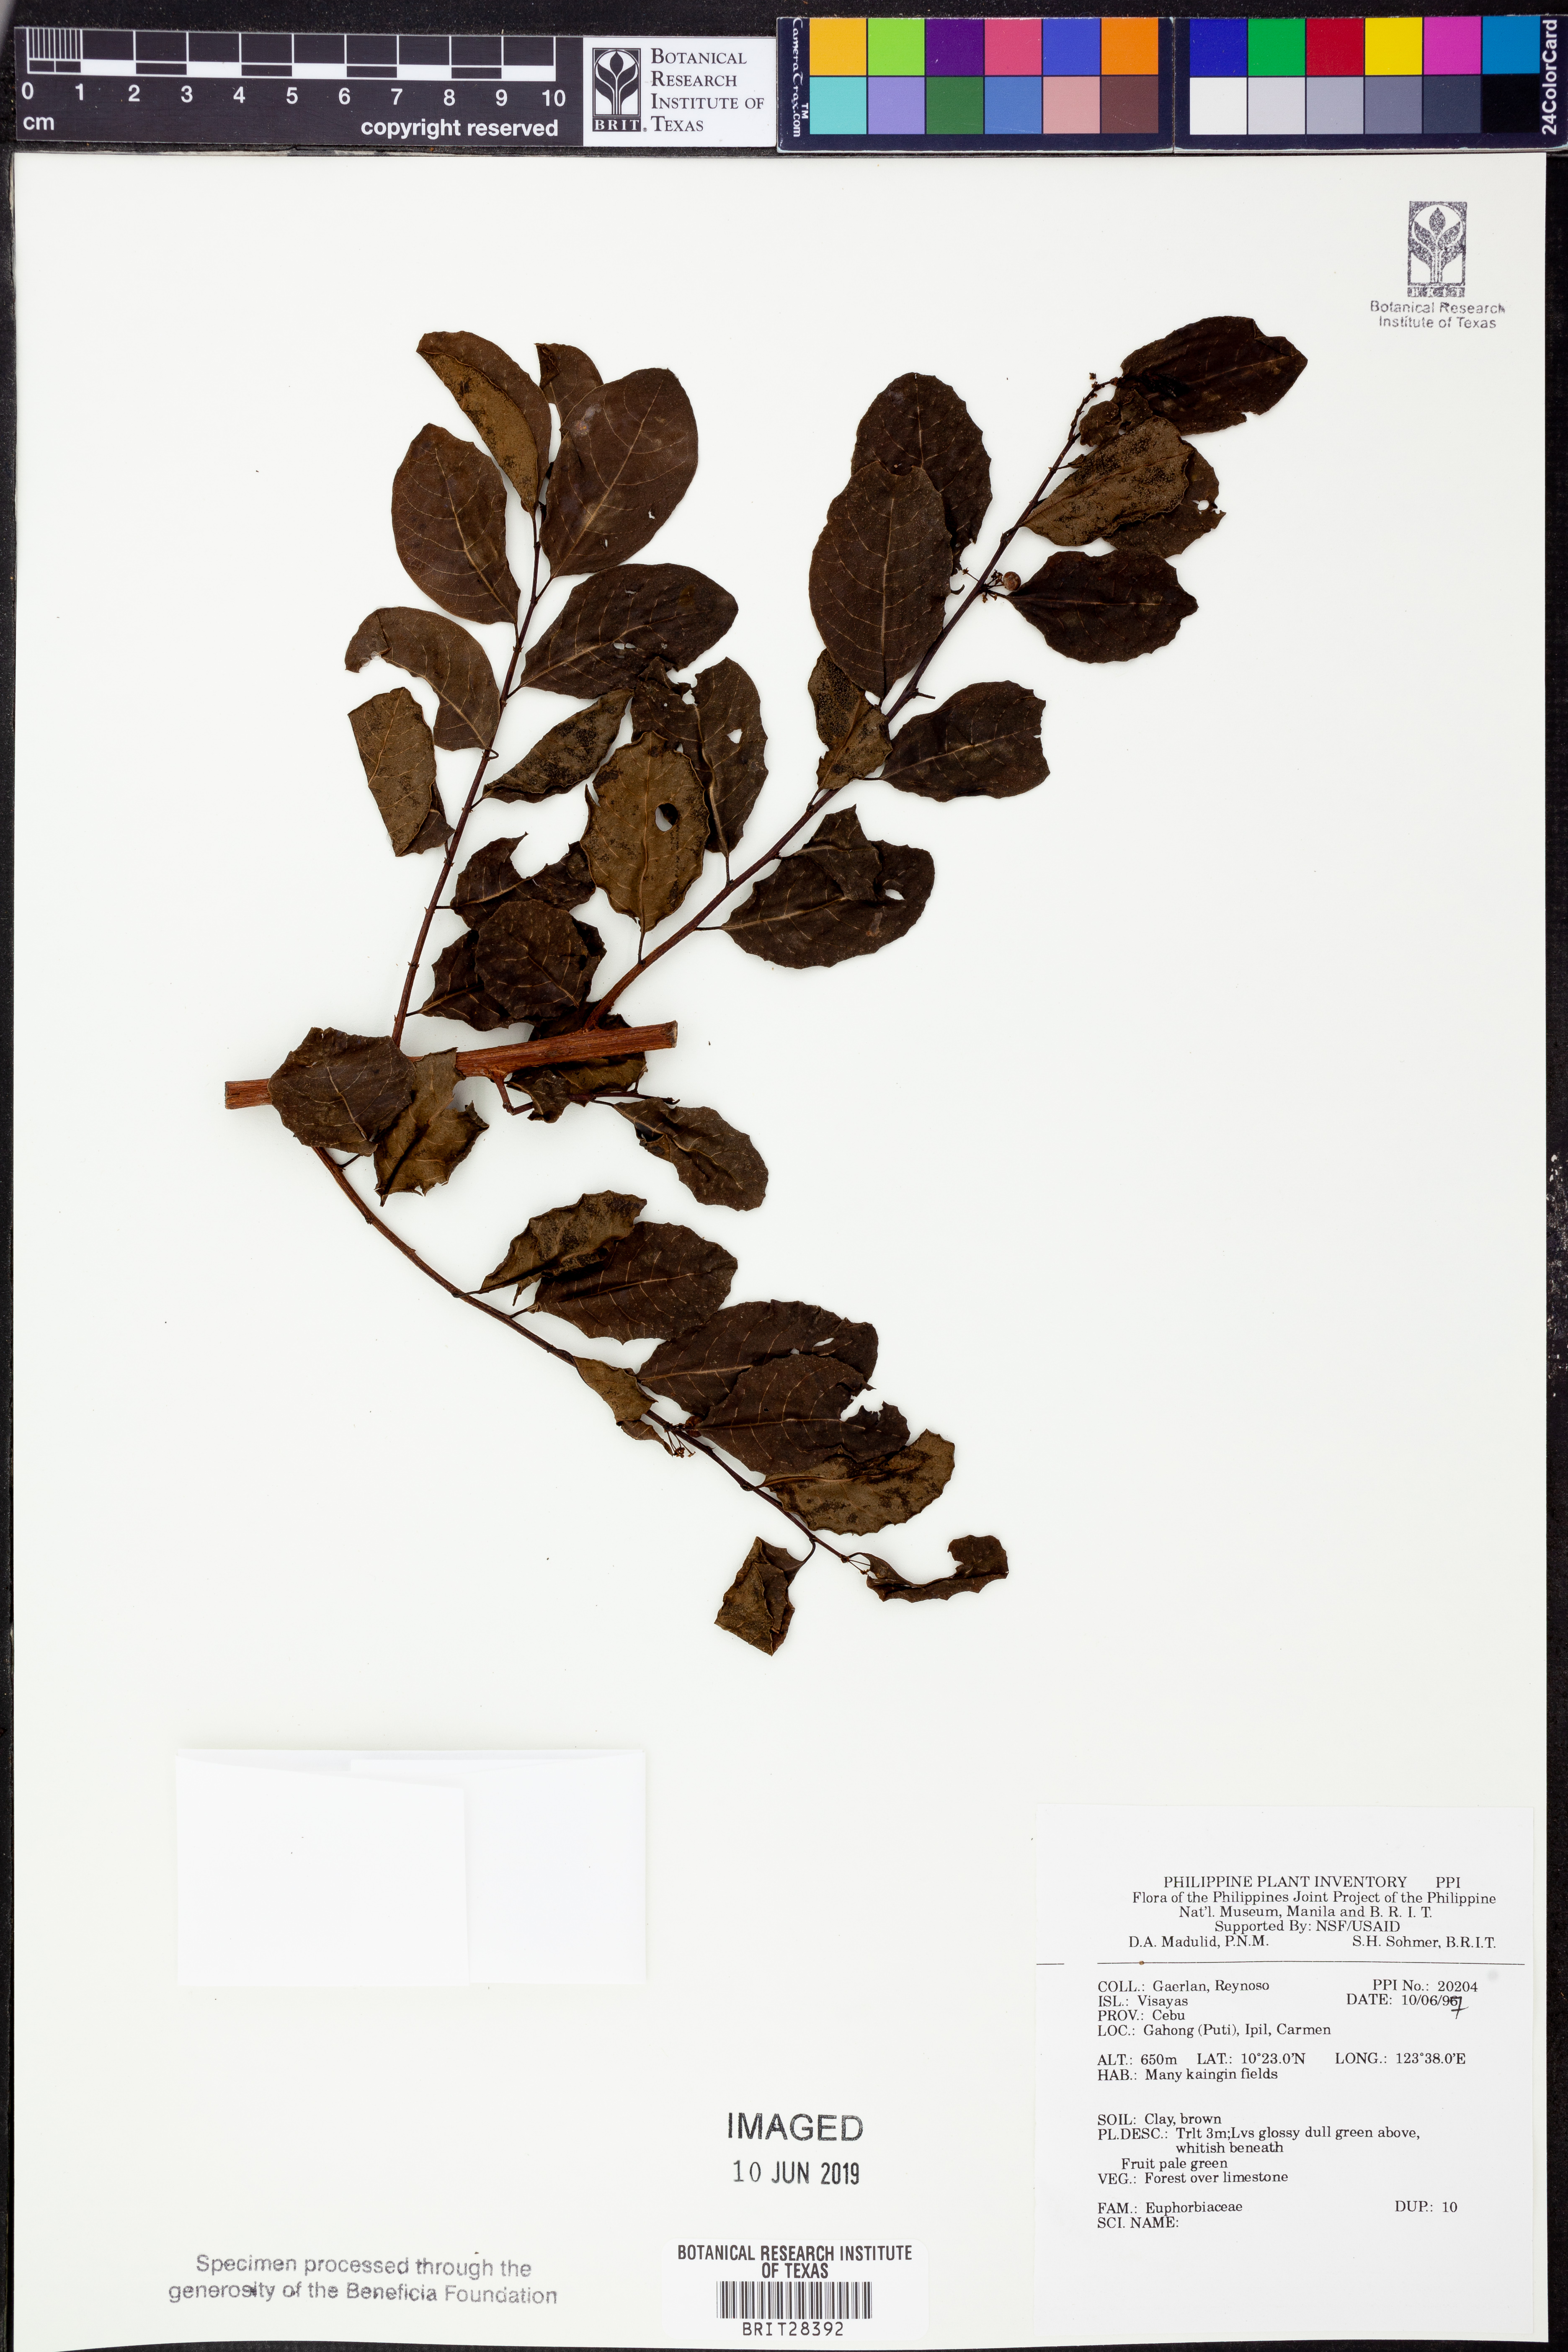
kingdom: Plantae
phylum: Tracheophyta
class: Magnoliopsida
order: Malpighiales
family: Euphorbiaceae
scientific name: Euphorbiaceae
